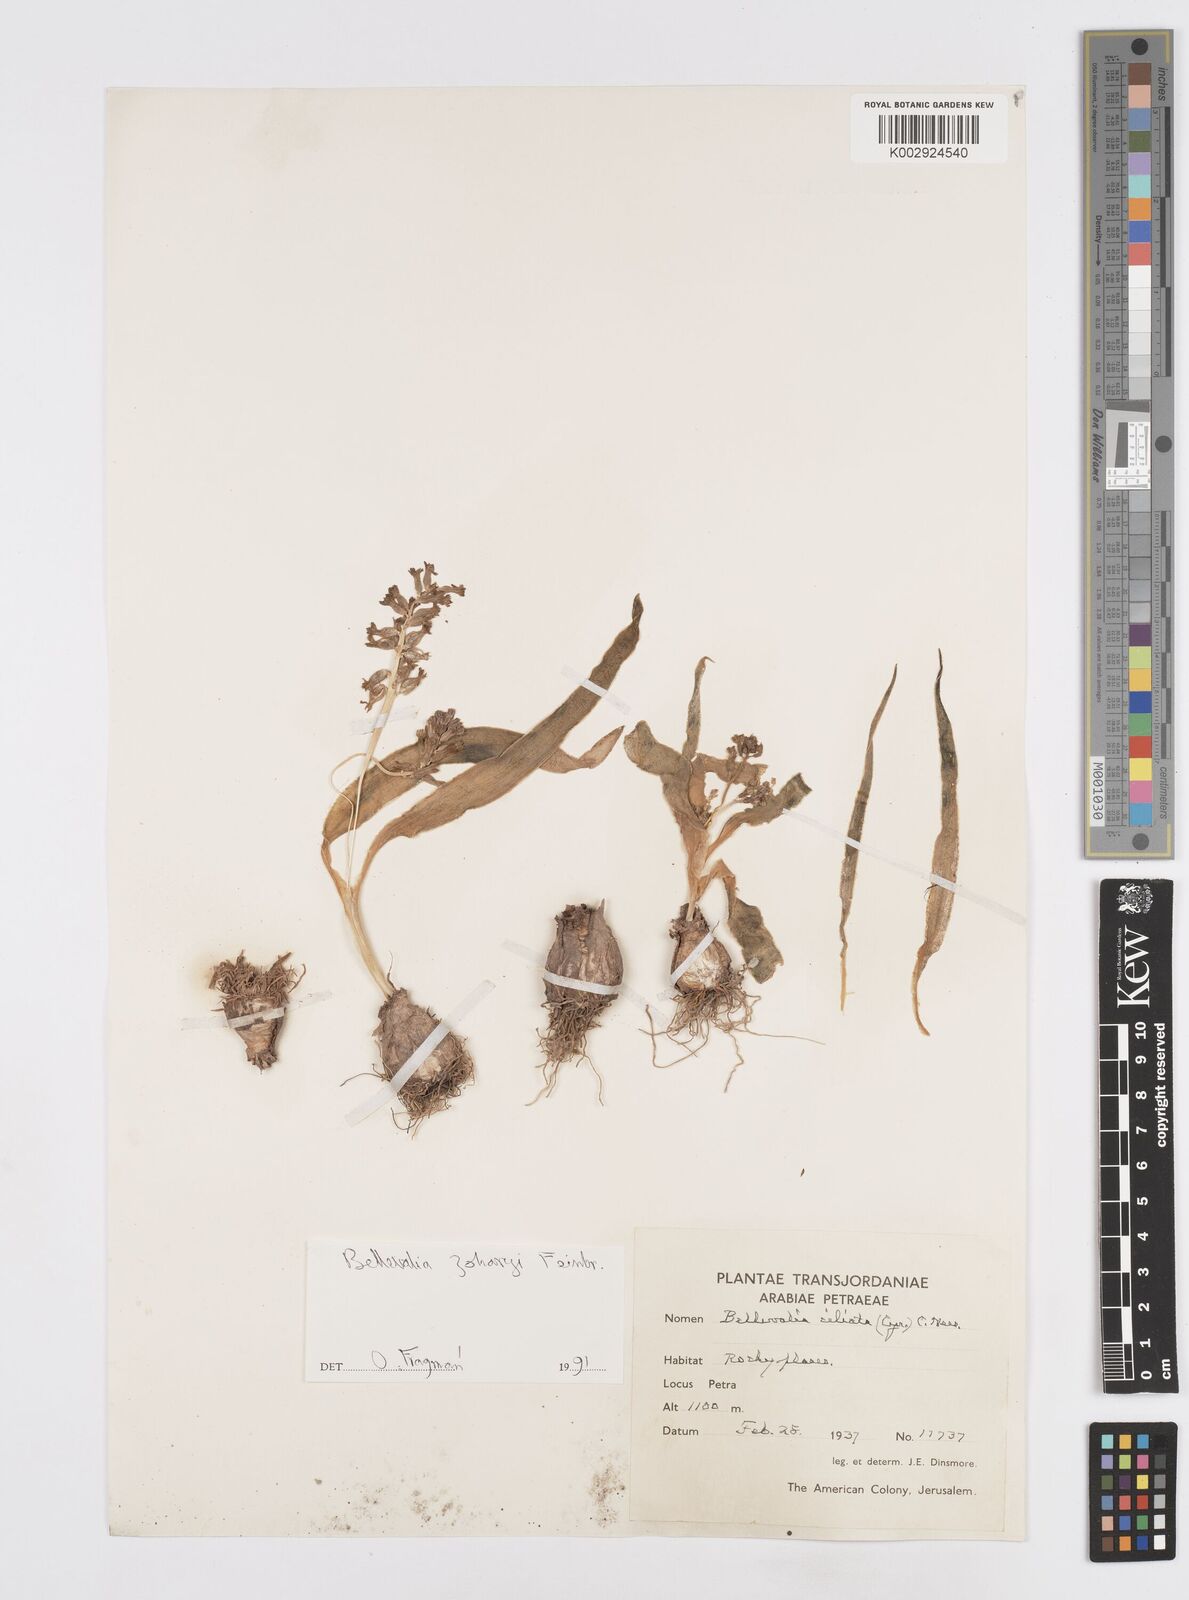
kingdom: Plantae
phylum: Tracheophyta
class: Liliopsida
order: Asparagales
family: Asparagaceae
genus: Bellevalia
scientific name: Bellevalia stepporum
